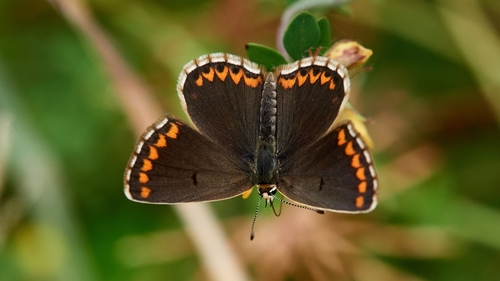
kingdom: Animalia
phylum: Arthropoda
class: Insecta
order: Lepidoptera
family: Lycaenidae
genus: Aricia
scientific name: Aricia cramera
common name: Eschscholtz´s brown  argus
